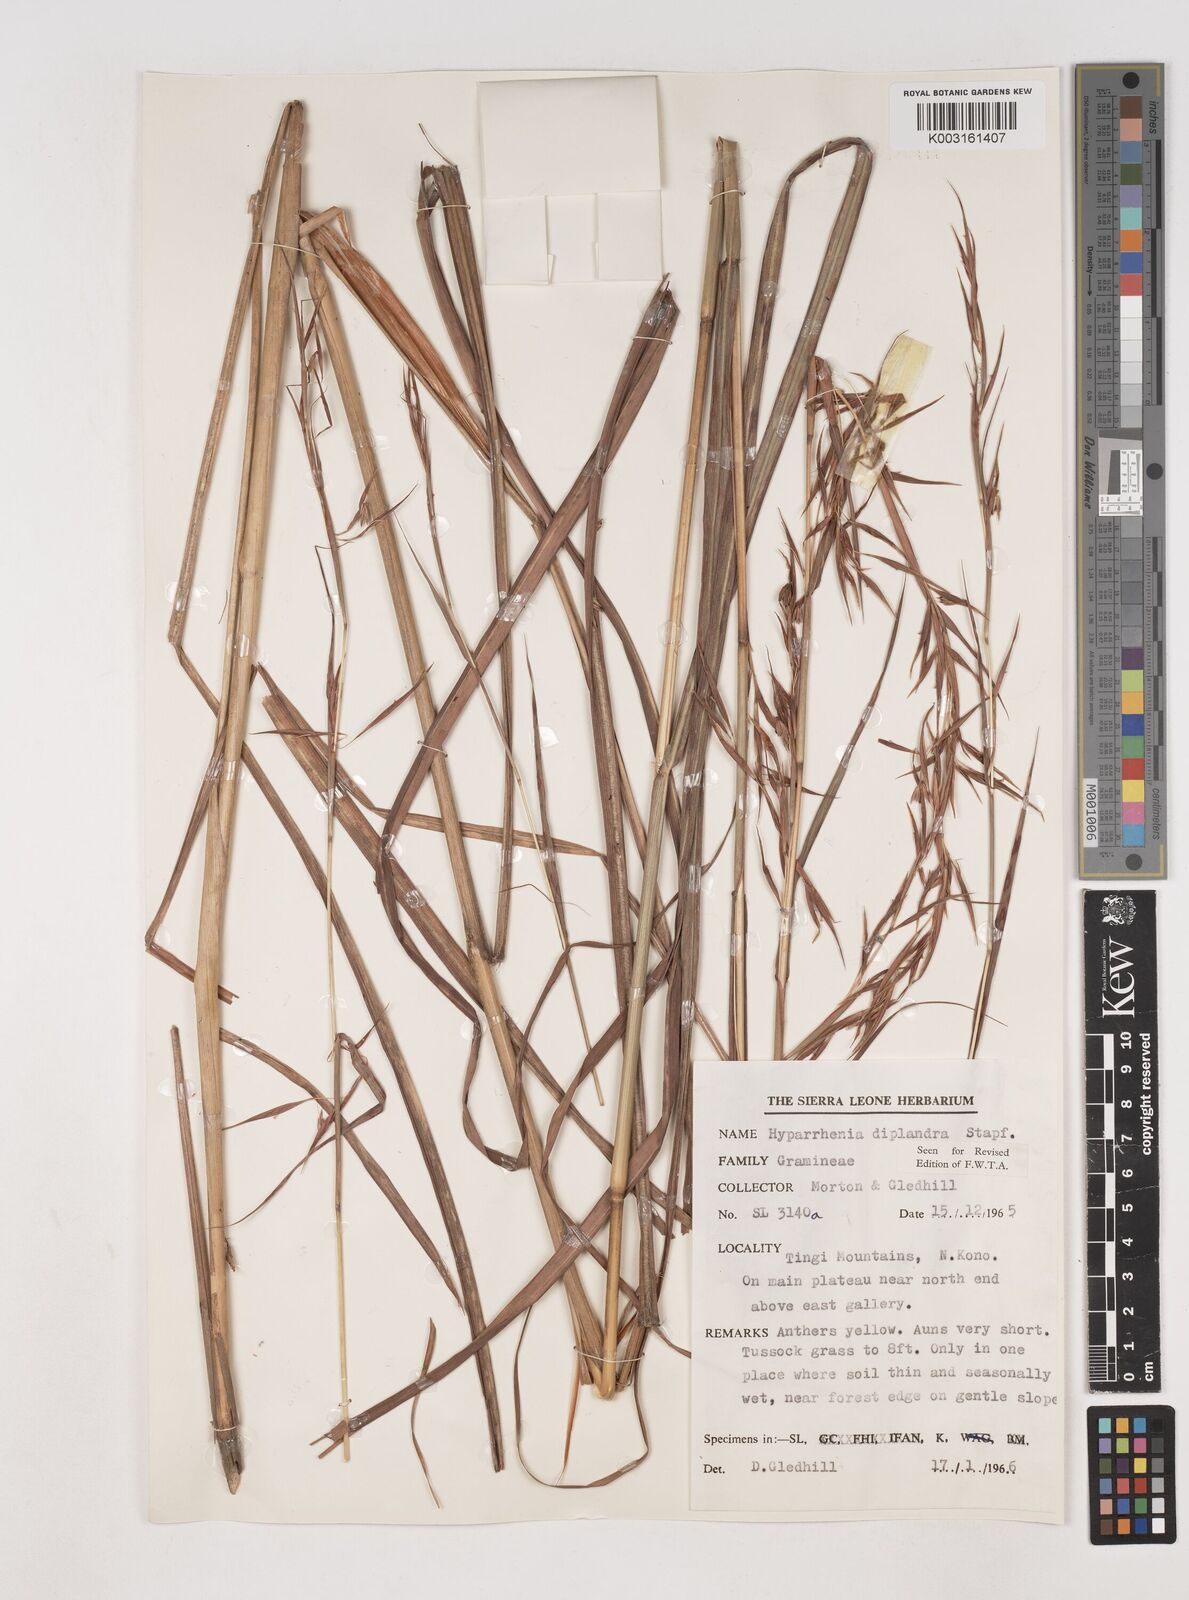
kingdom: Plantae
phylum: Tracheophyta
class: Liliopsida
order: Poales
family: Poaceae
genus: Hyparrhenia
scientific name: Hyparrhenia diplandra
